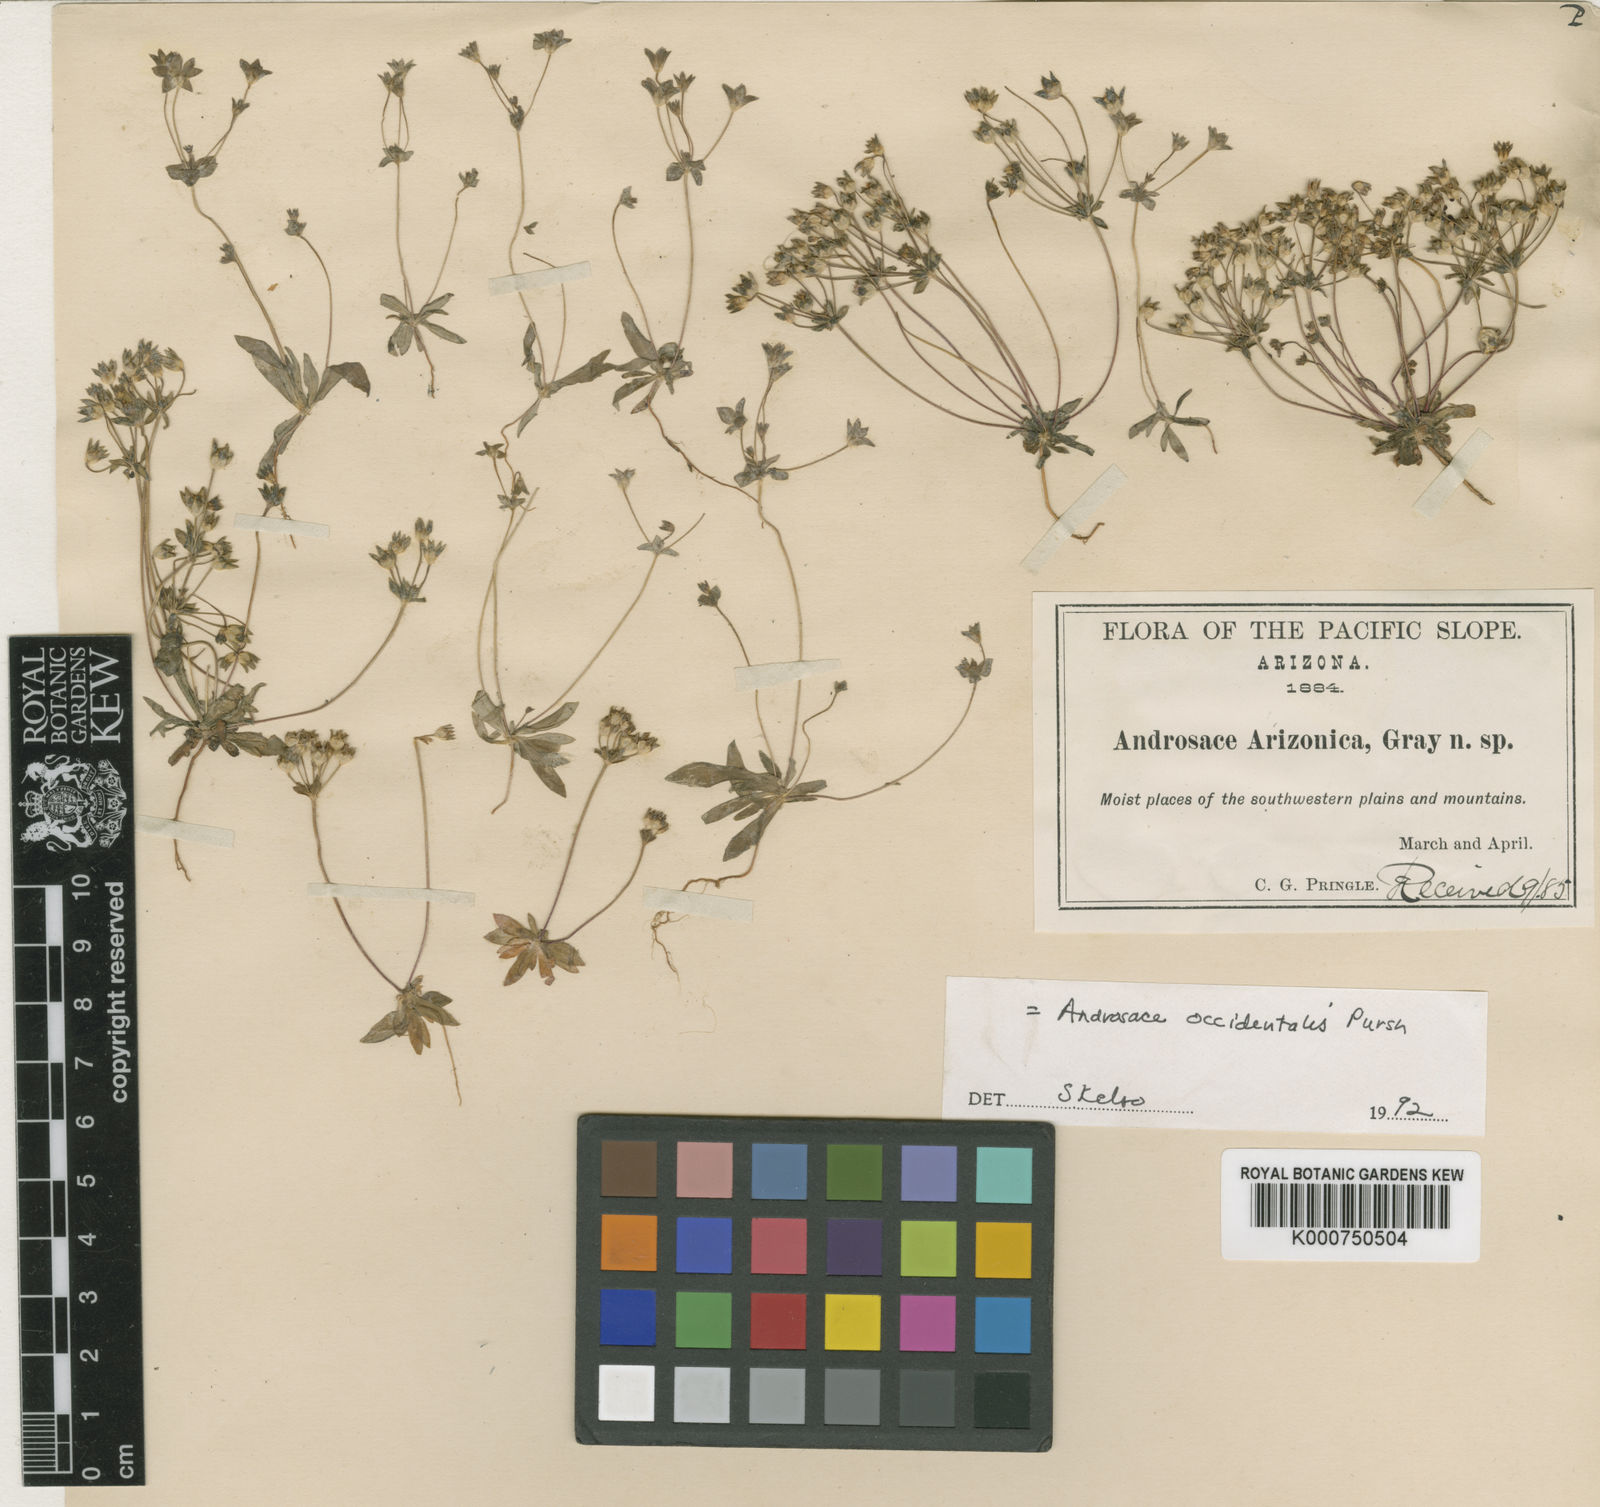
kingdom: Plantae
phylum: Tracheophyta
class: Magnoliopsida
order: Ericales
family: Primulaceae
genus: Androsace
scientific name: Androsace occidentalis
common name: West rock-jasmine
